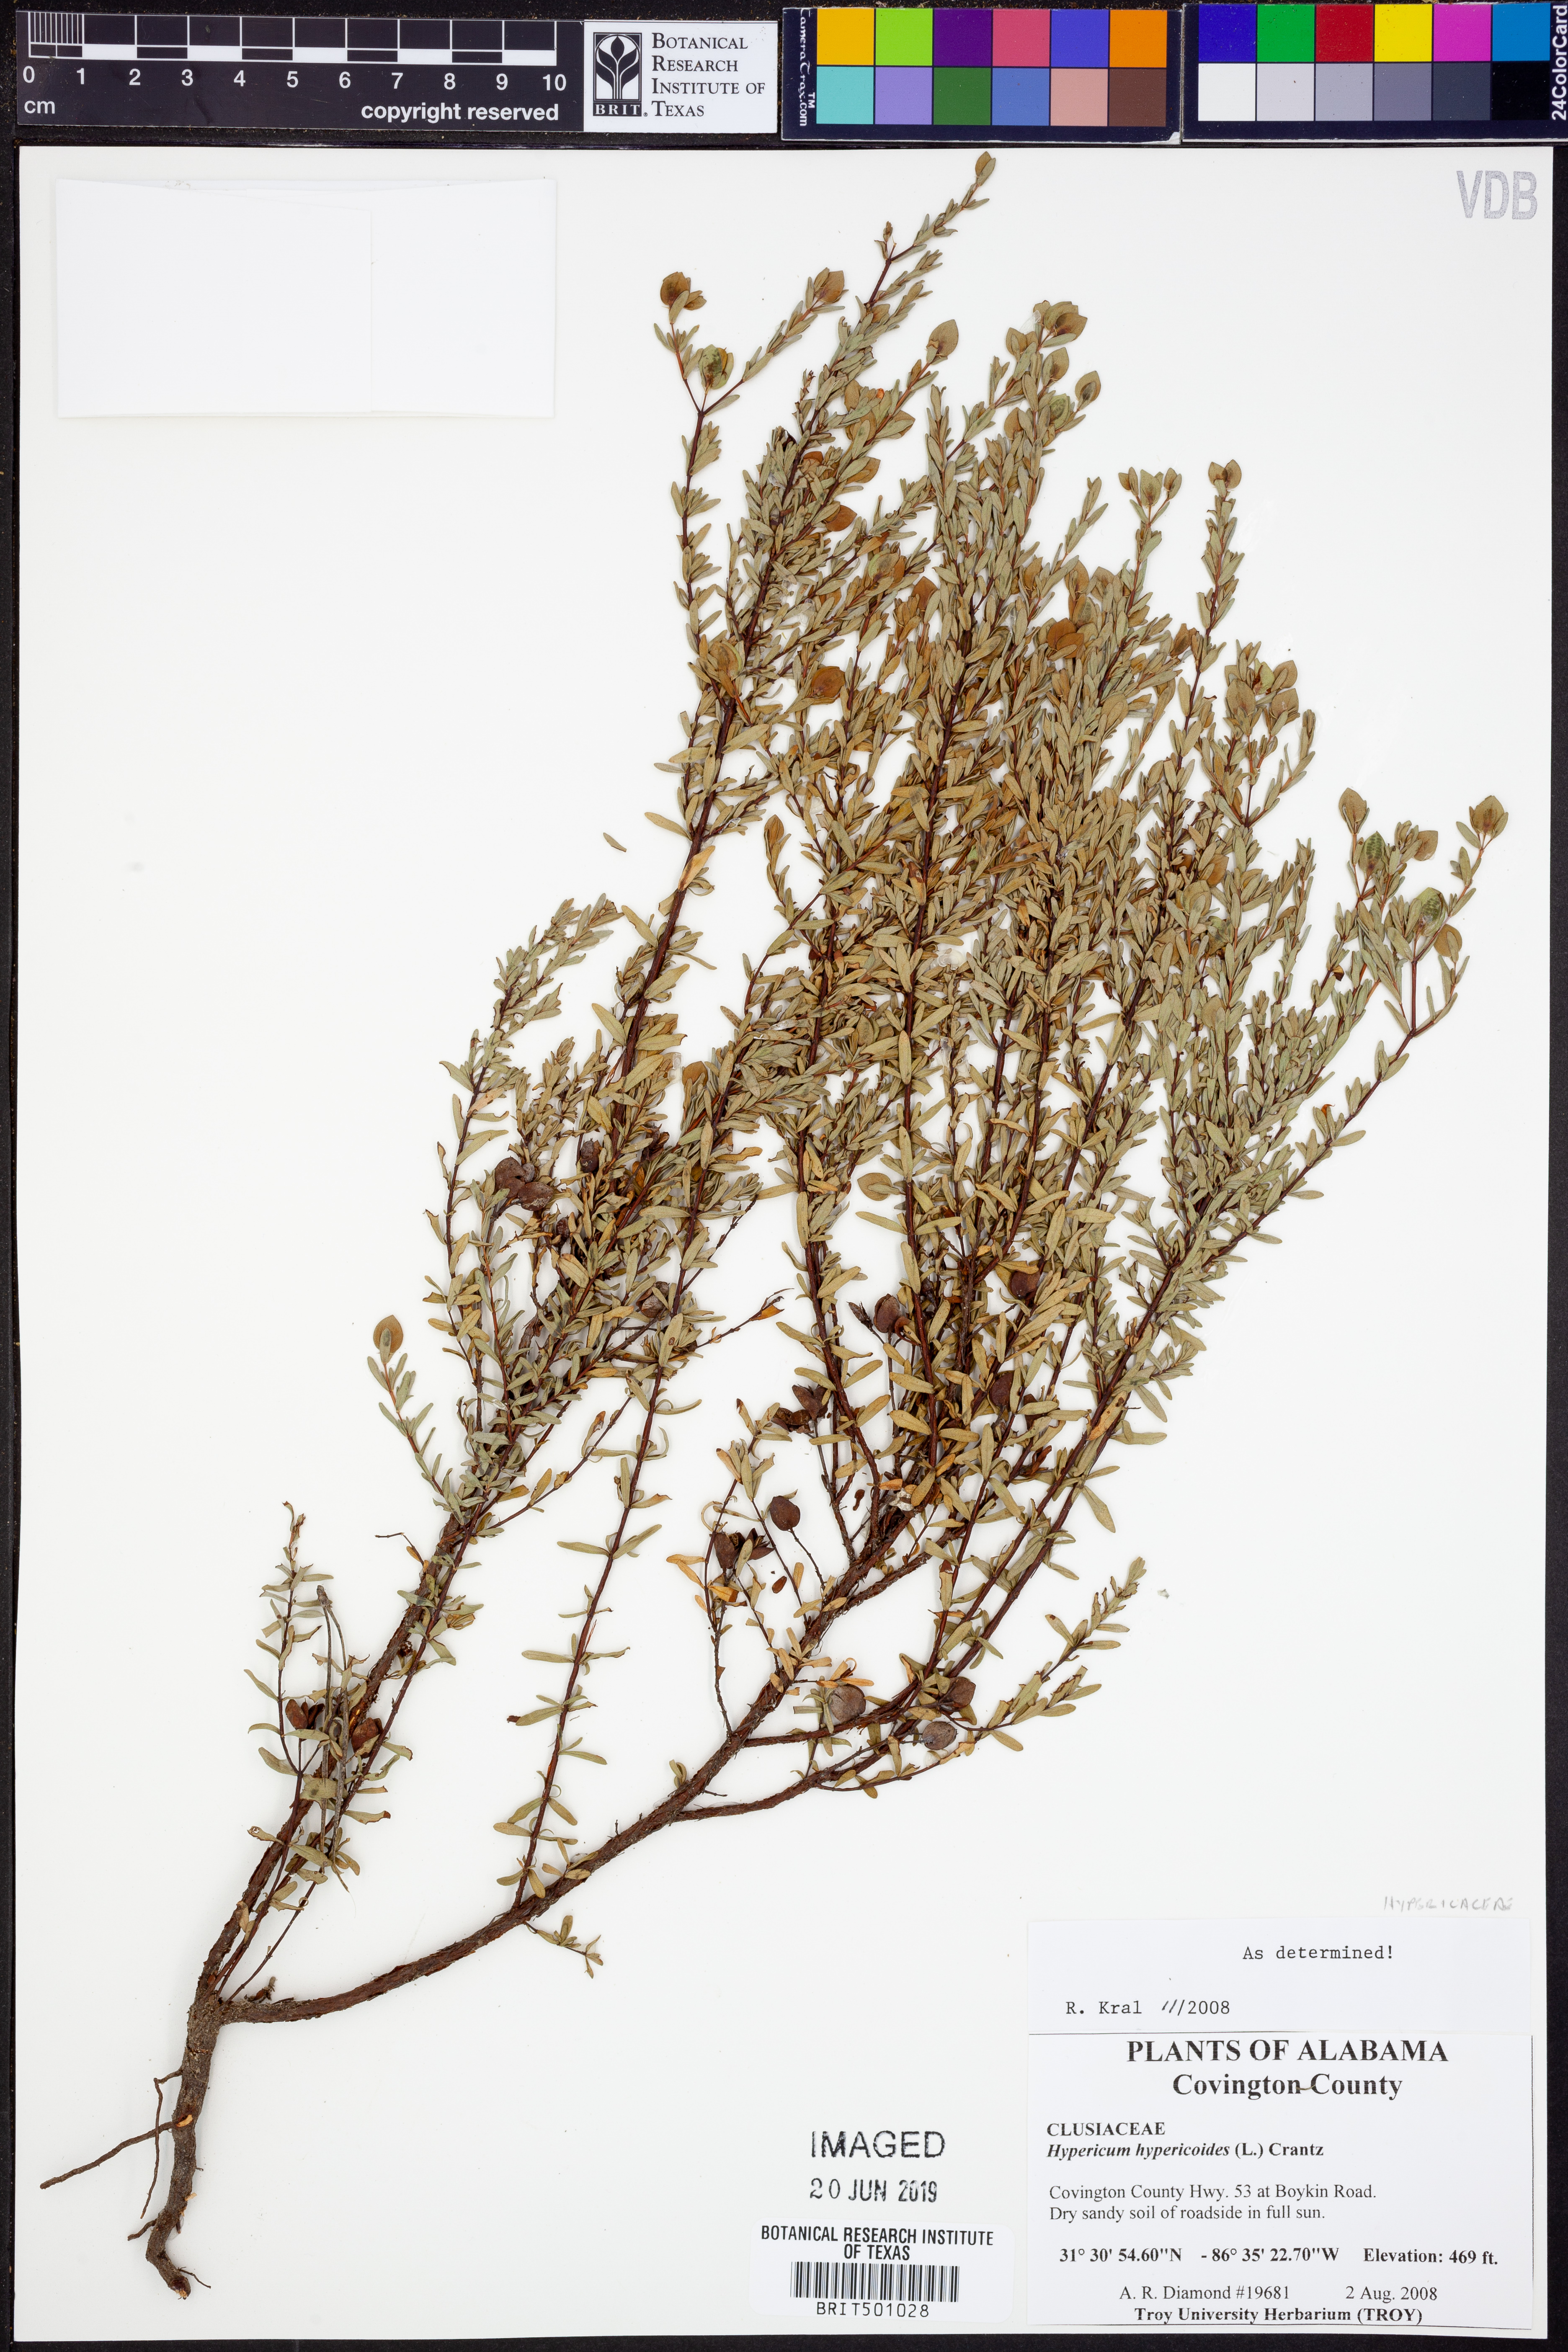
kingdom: Plantae
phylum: Tracheophyta
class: Magnoliopsida
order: Malpighiales
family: Hypericaceae
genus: Hypericum
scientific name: Hypericum hypericoides
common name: St. andrew's cross
